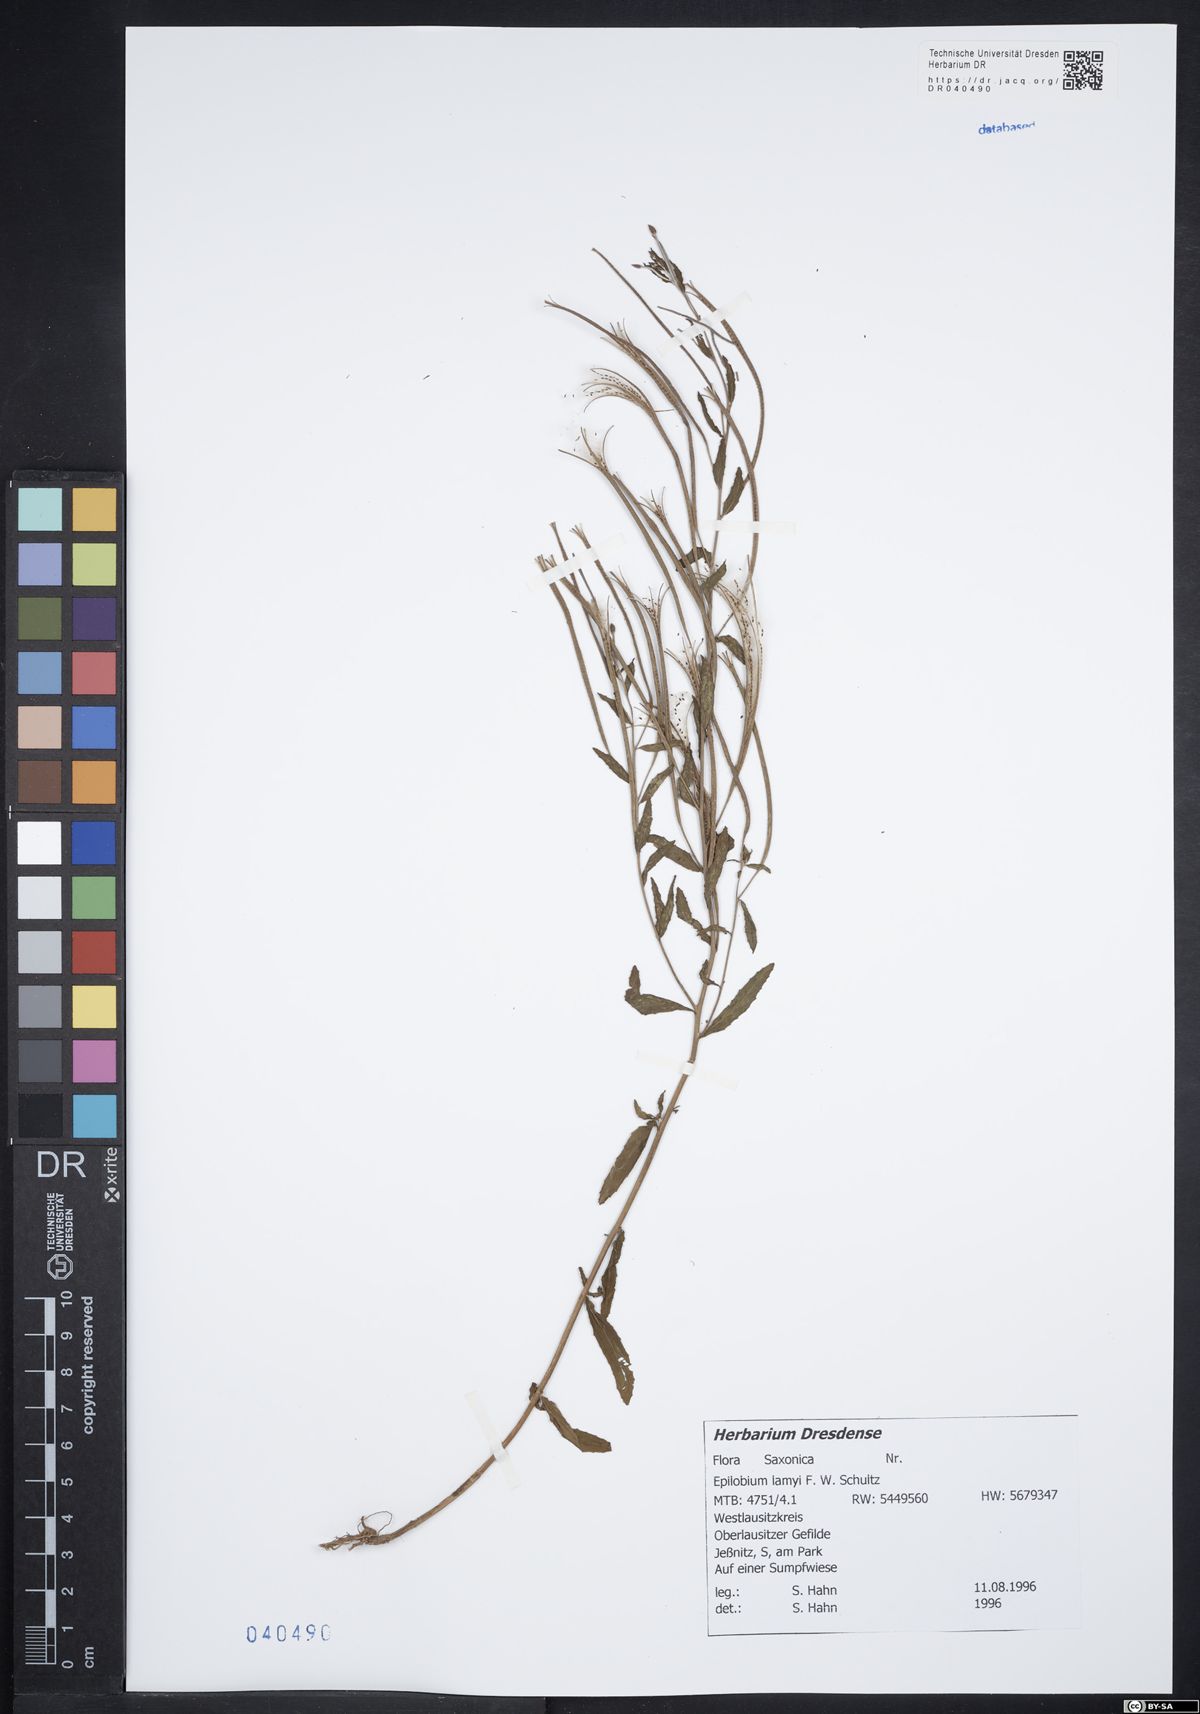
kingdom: Plantae
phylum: Tracheophyta
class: Magnoliopsida
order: Myrtales
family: Onagraceae
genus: Epilobium
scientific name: Epilobium lamyi
